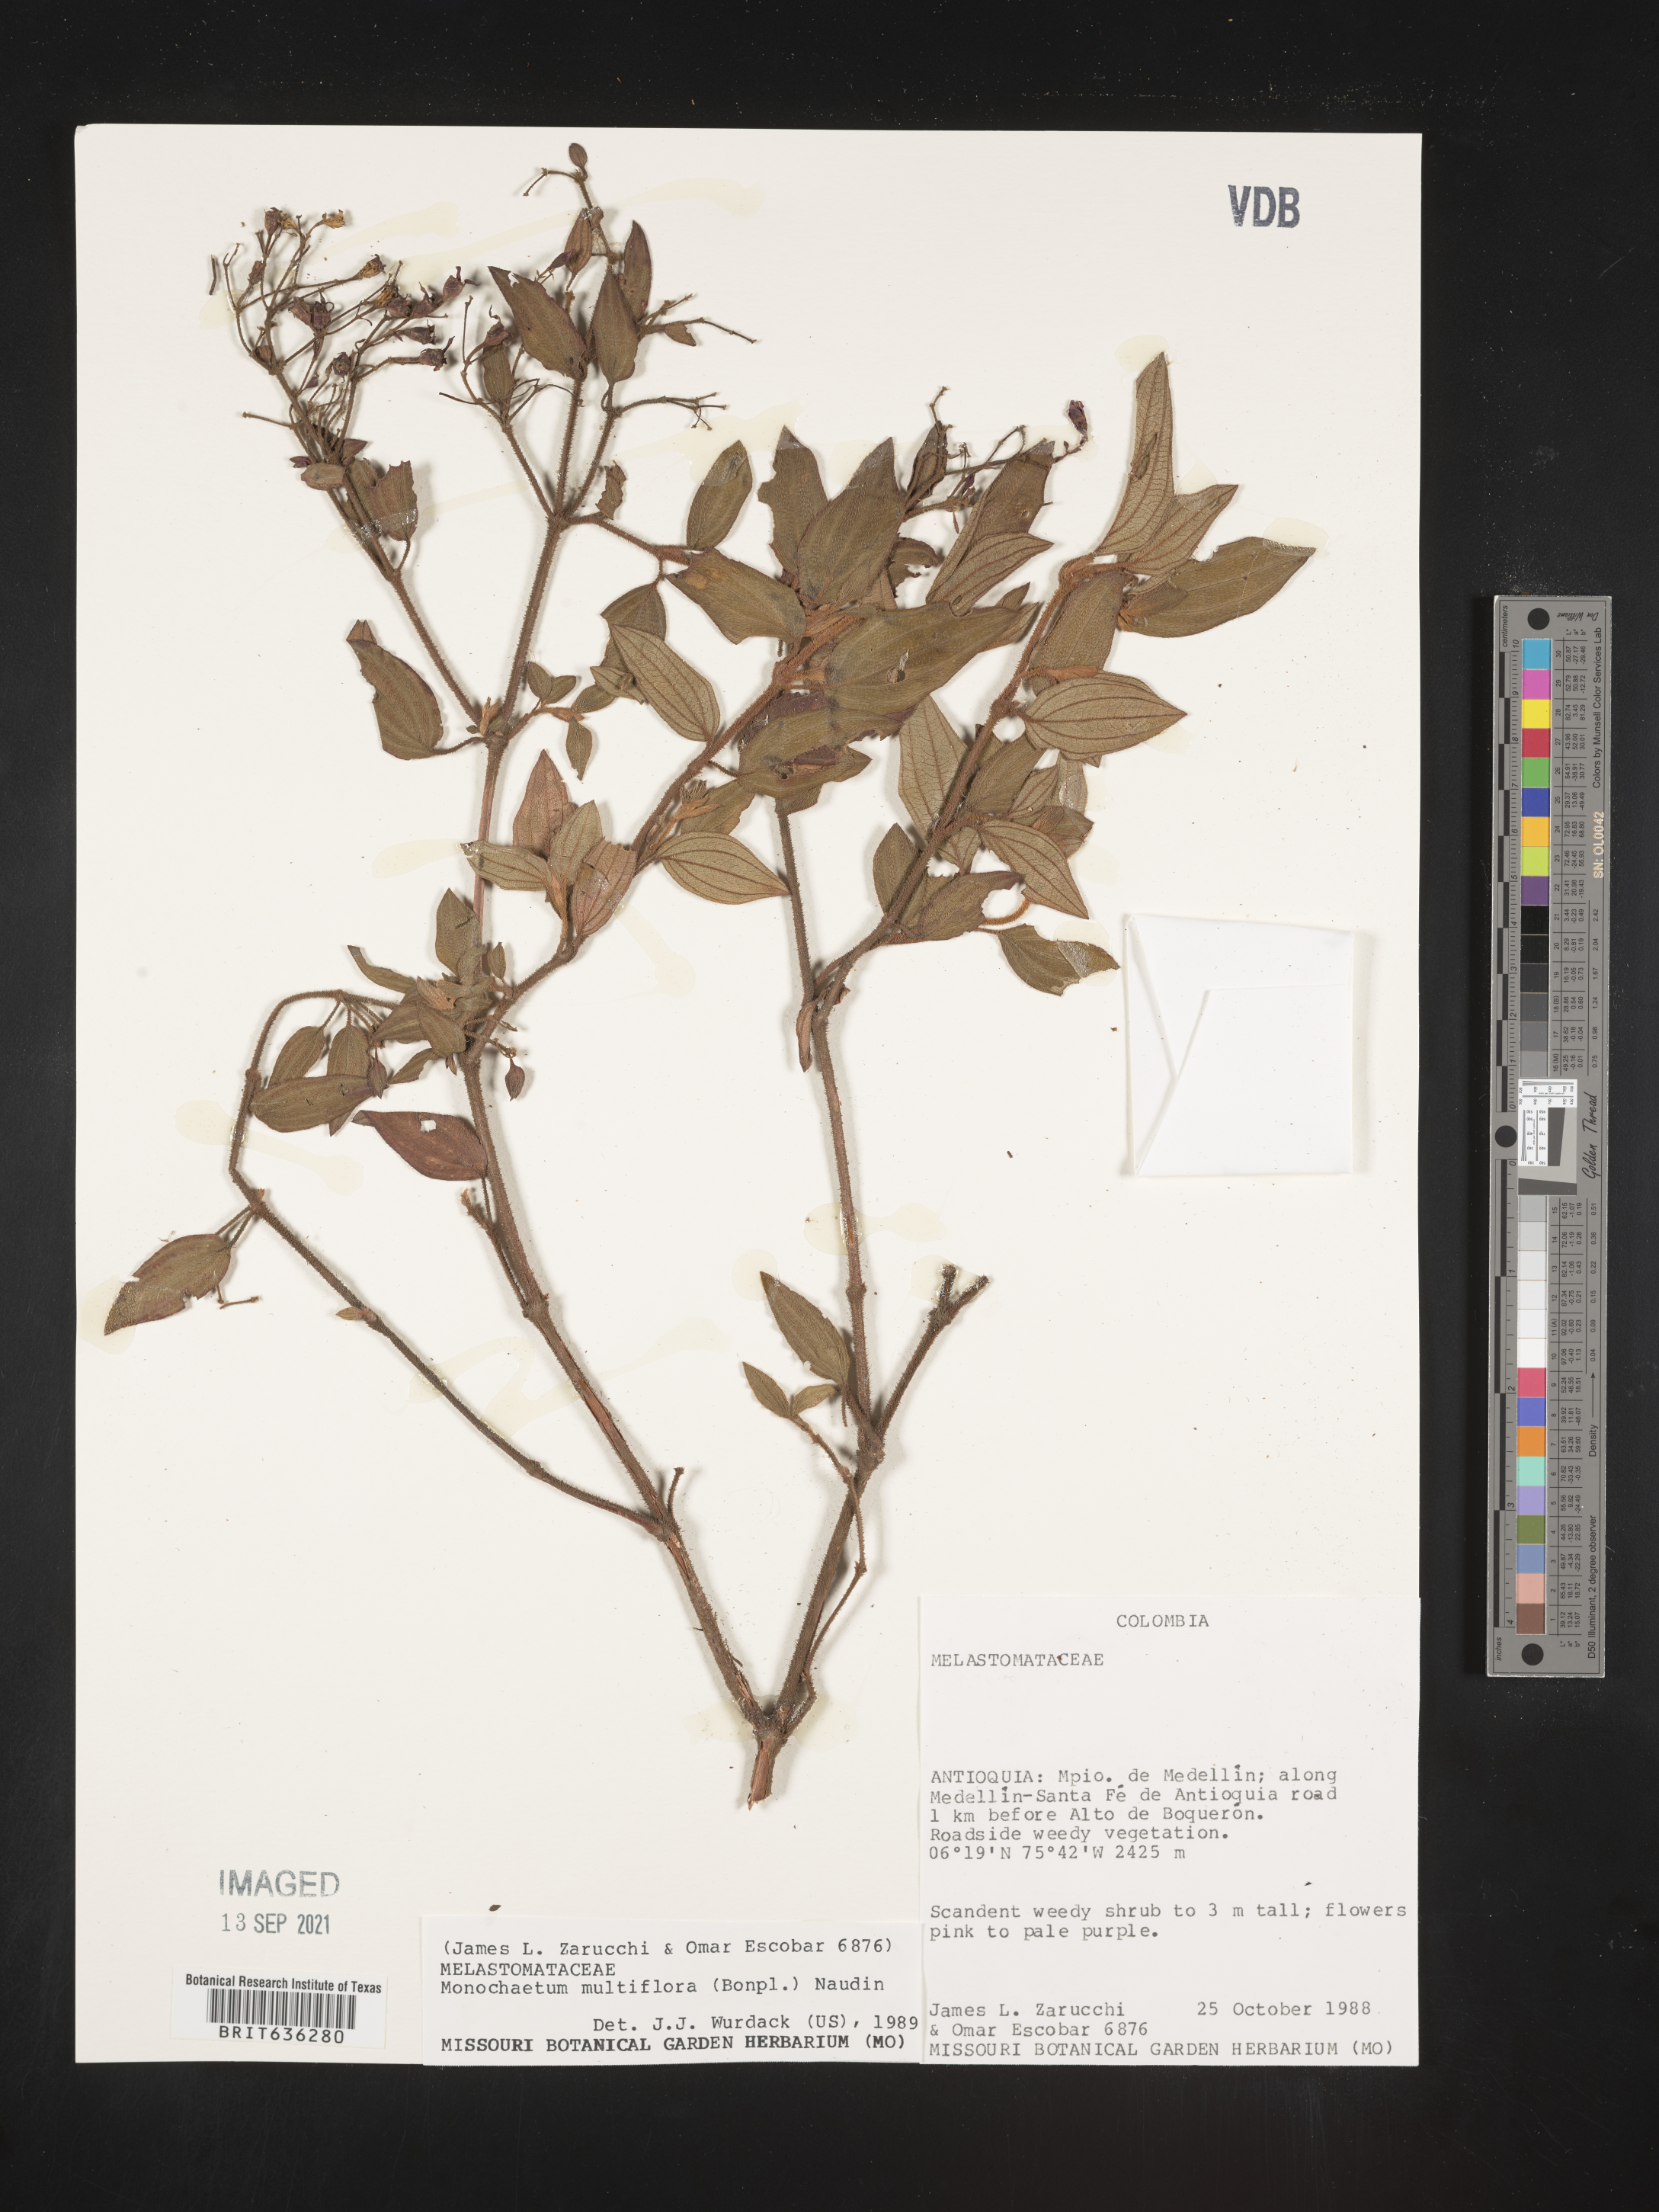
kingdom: Plantae
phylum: Tracheophyta
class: Magnoliopsida
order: Myrtales
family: Melastomataceae
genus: Monochaetum
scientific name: Monochaetum
